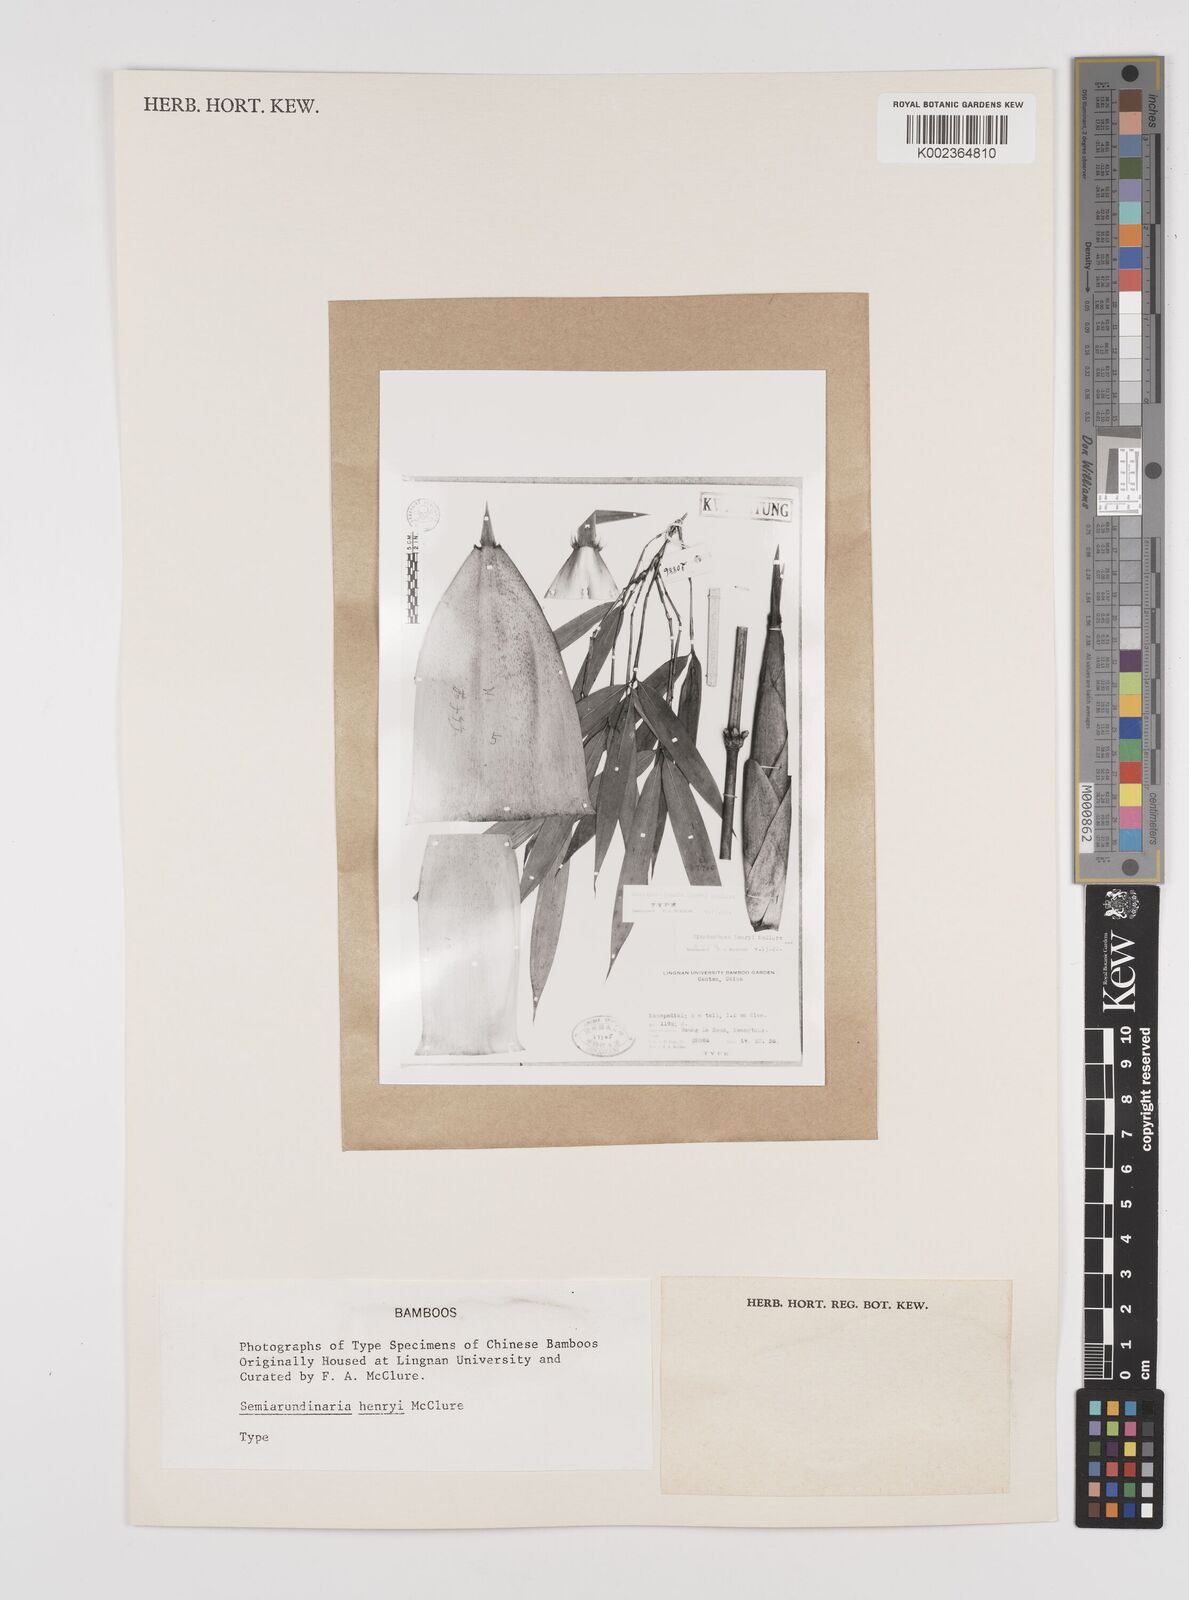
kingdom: Plantae
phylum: Tracheophyta
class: Liliopsida
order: Poales
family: Poaceae
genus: Semiarundinaria
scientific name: Semiarundinaria fastuosa
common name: Narihira bamboo
